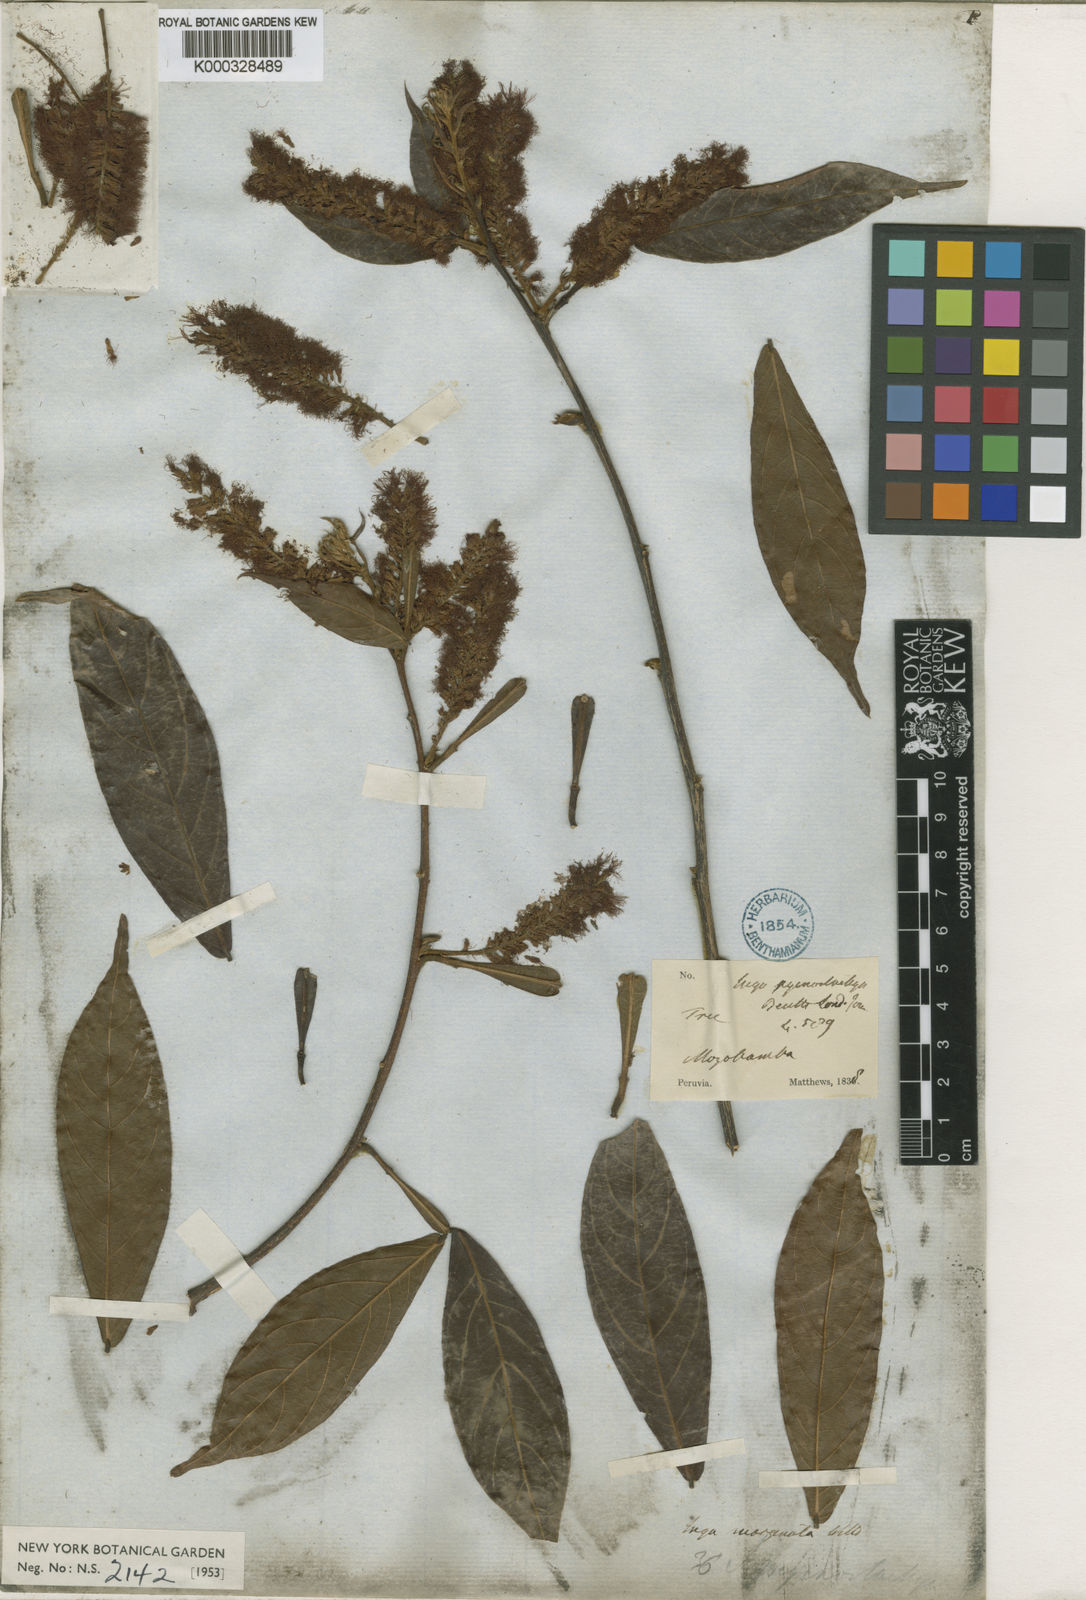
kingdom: Plantae
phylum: Tracheophyta
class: Magnoliopsida
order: Fabales
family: Fabaceae
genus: Inga
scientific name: Inga marginata
